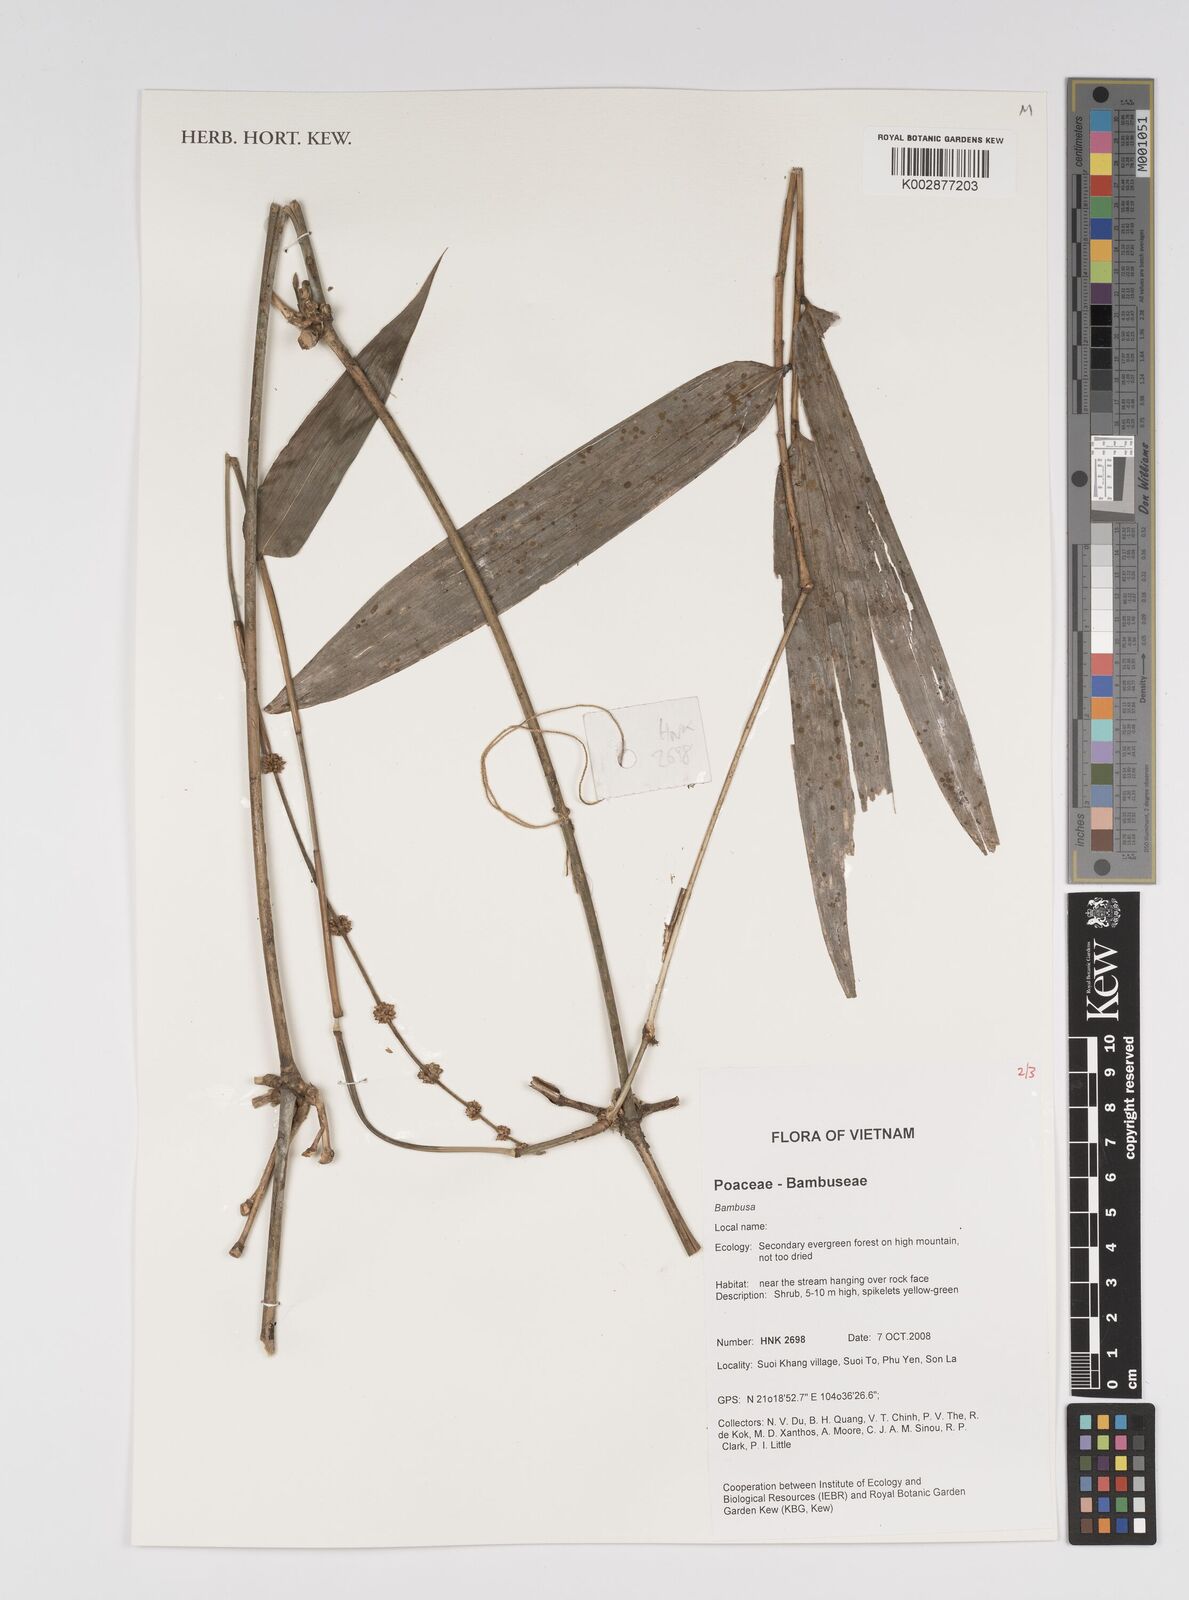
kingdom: Plantae
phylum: Tracheophyta
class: Liliopsida
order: Poales
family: Poaceae
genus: Bambusa
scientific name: Bambusa
